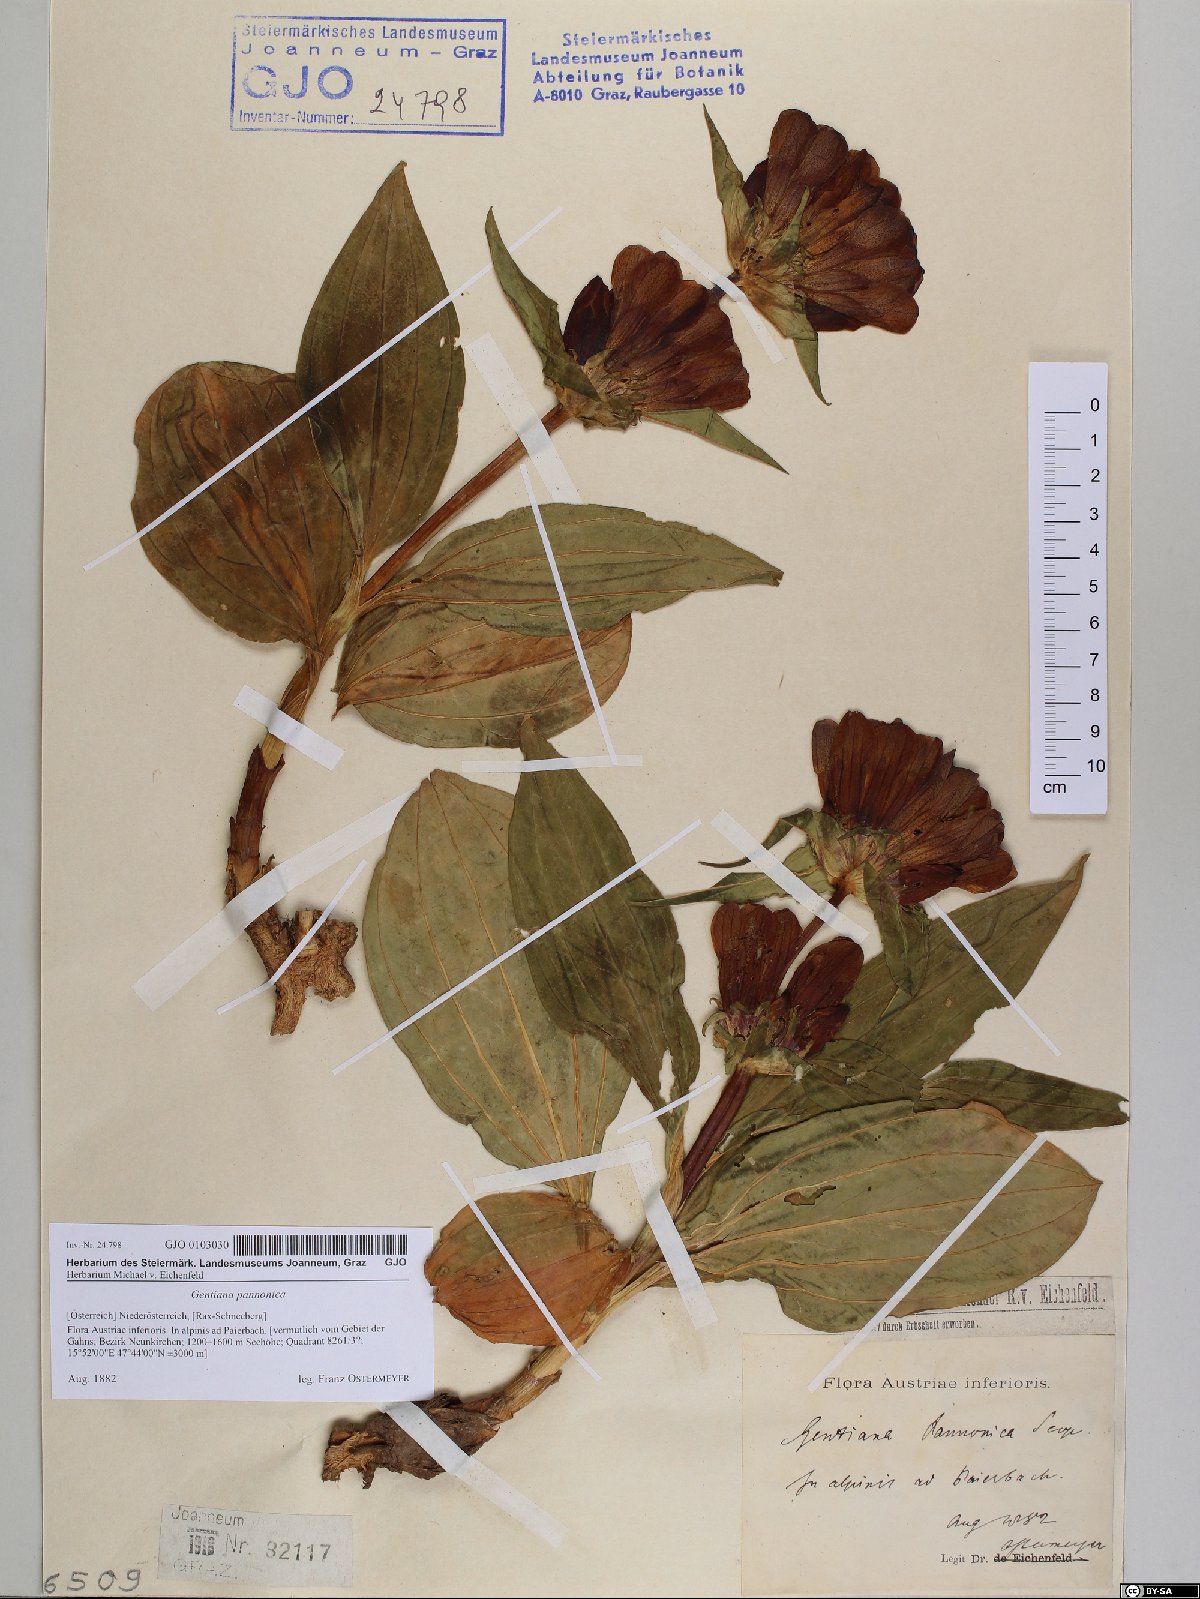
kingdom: Plantae
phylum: Tracheophyta
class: Magnoliopsida
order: Gentianales
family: Gentianaceae
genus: Gentiana
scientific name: Gentiana pannonica
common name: Hungarian gentian
